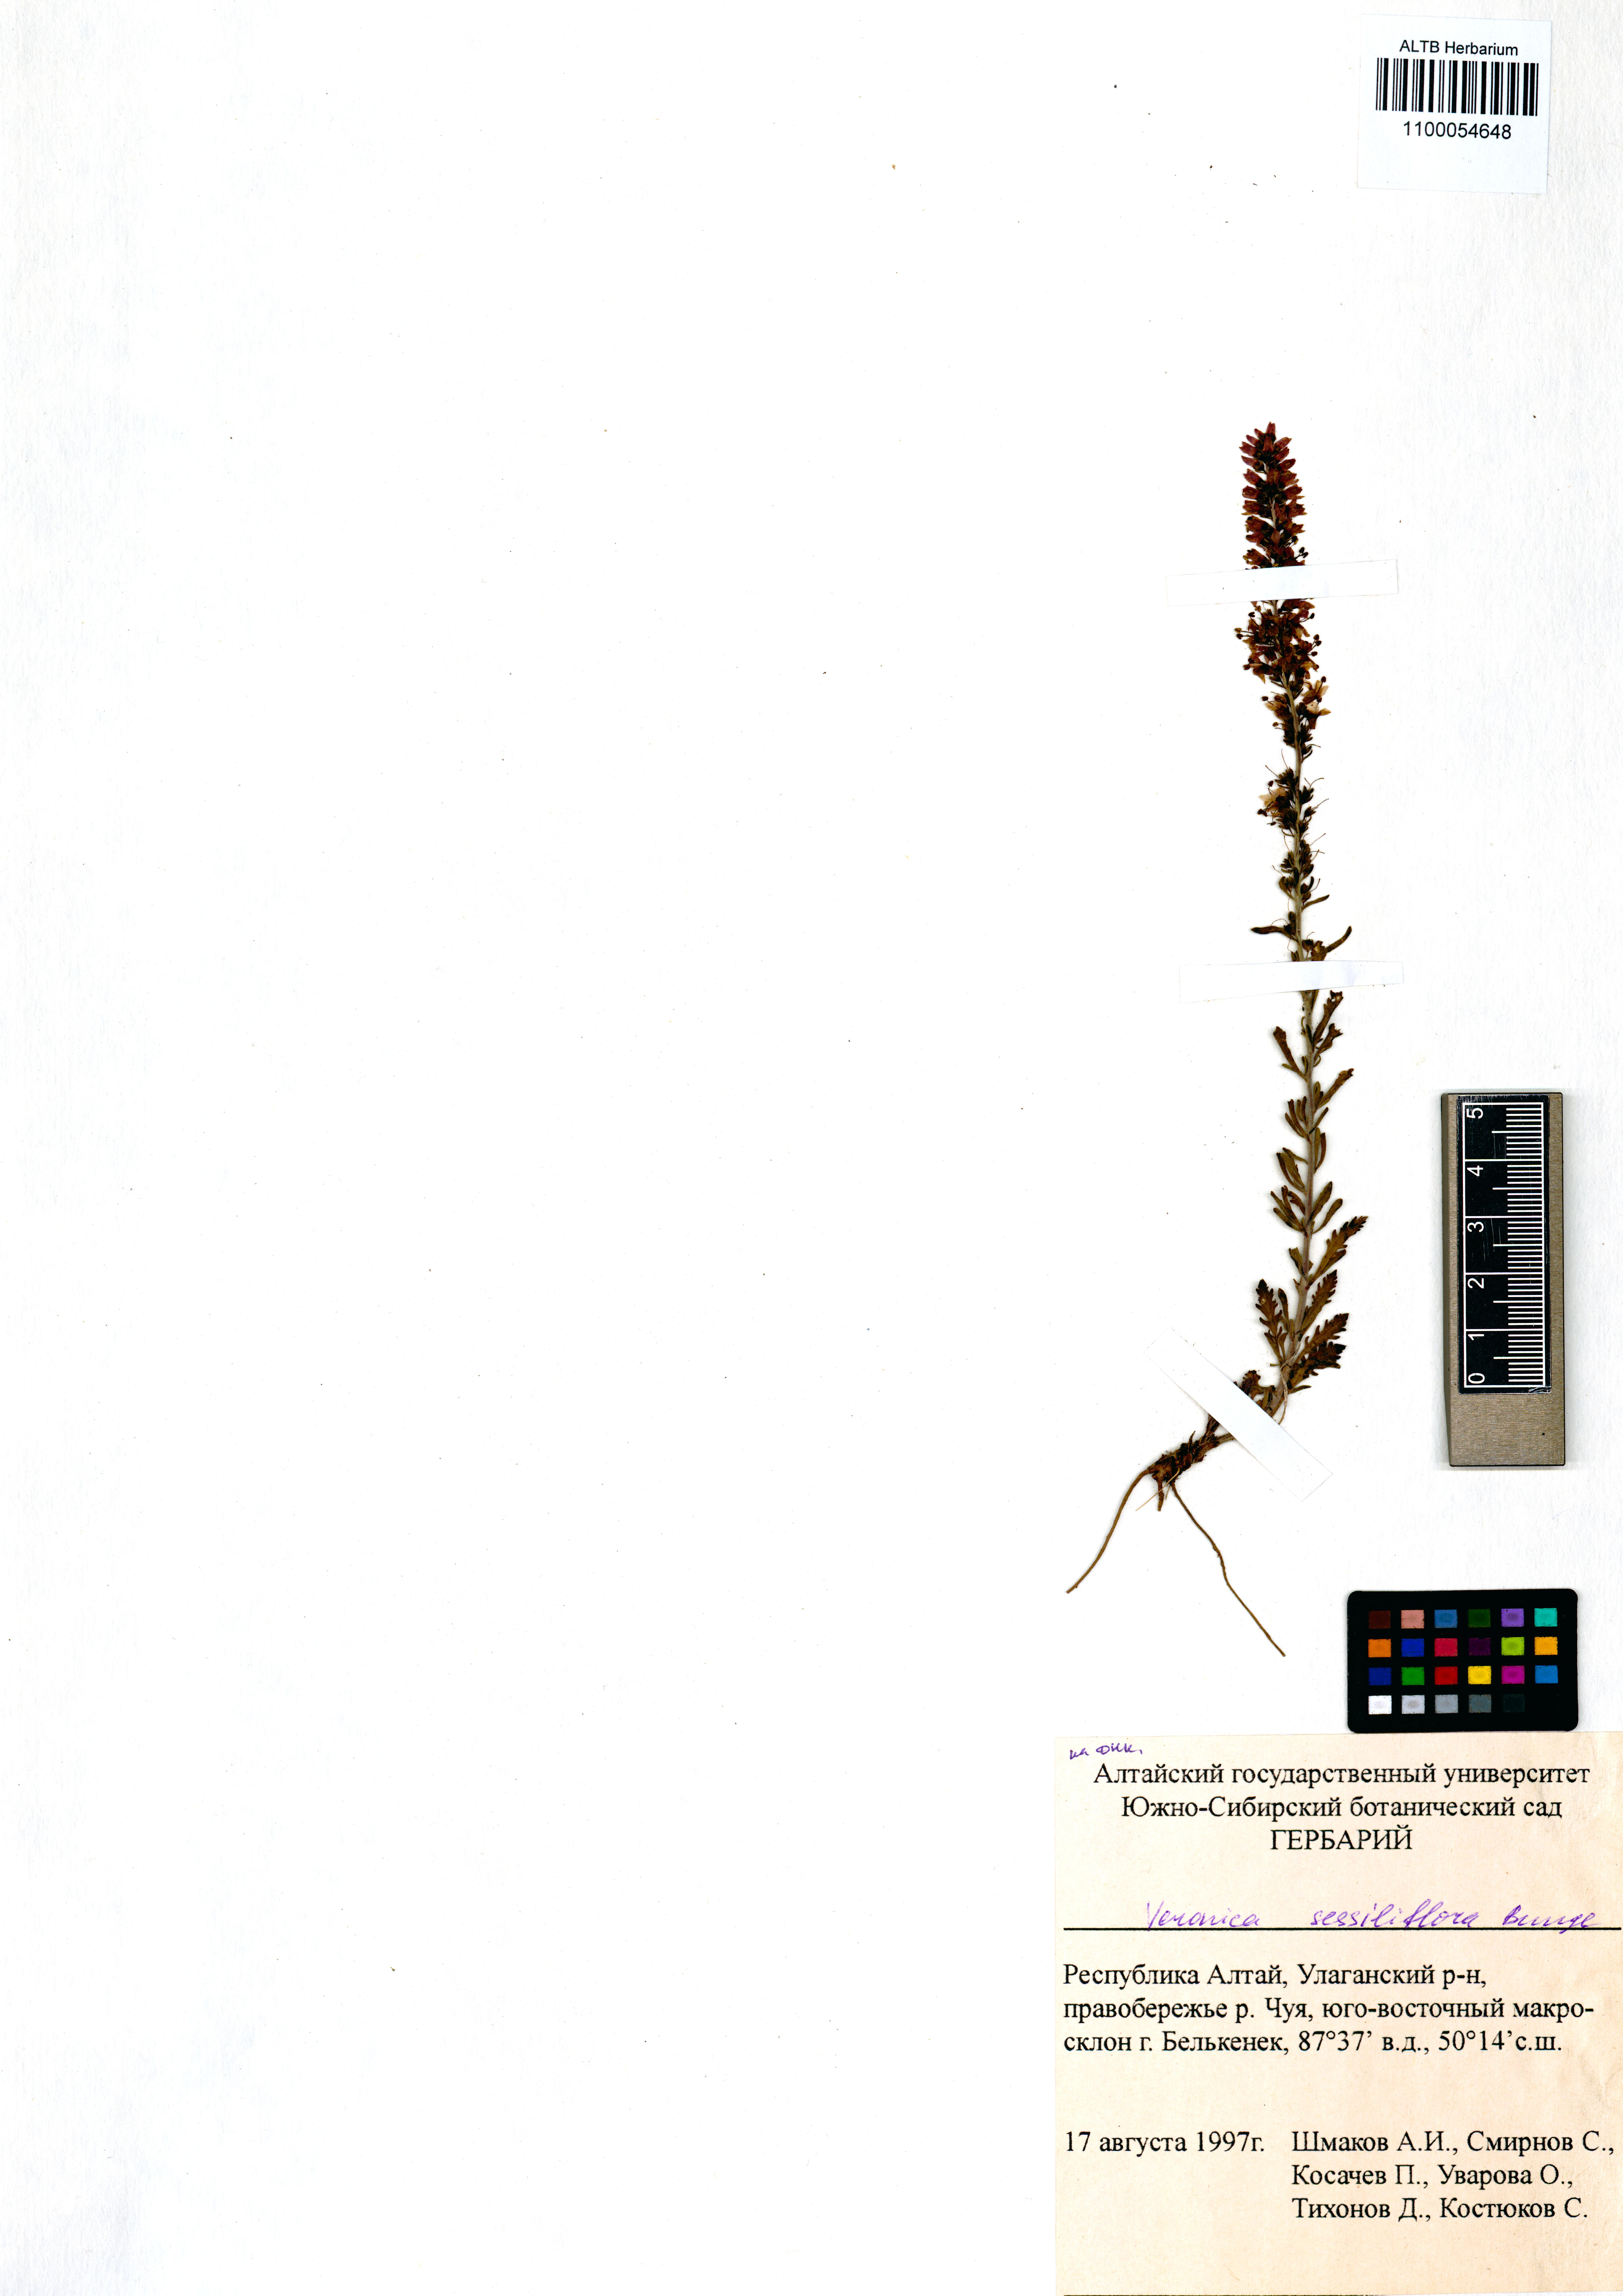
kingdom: Plantae
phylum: Tracheophyta
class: Magnoliopsida
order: Lamiales
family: Plantaginaceae
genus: Veronica
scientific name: Veronica sessiliflora
